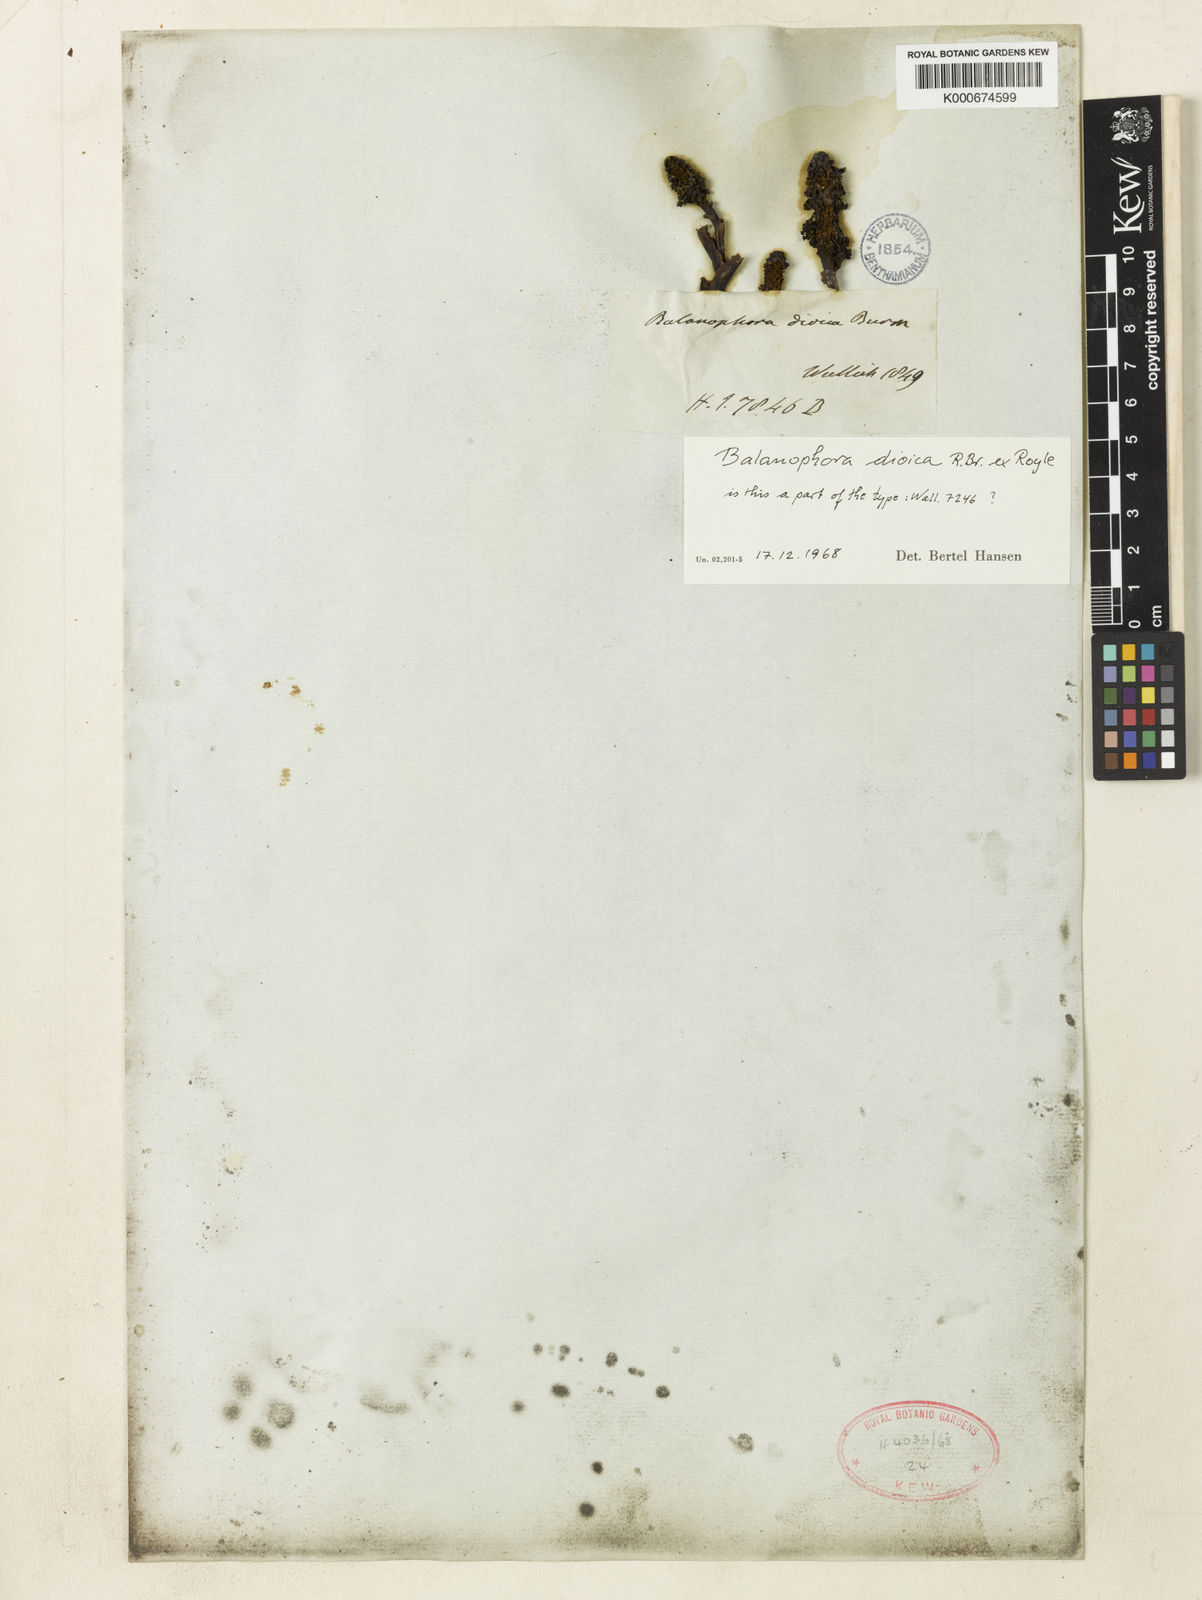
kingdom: Plantae
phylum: Tracheophyta
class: Magnoliopsida
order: Santalales
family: Balanophoraceae
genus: Balanophora
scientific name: Balanophora dioica
